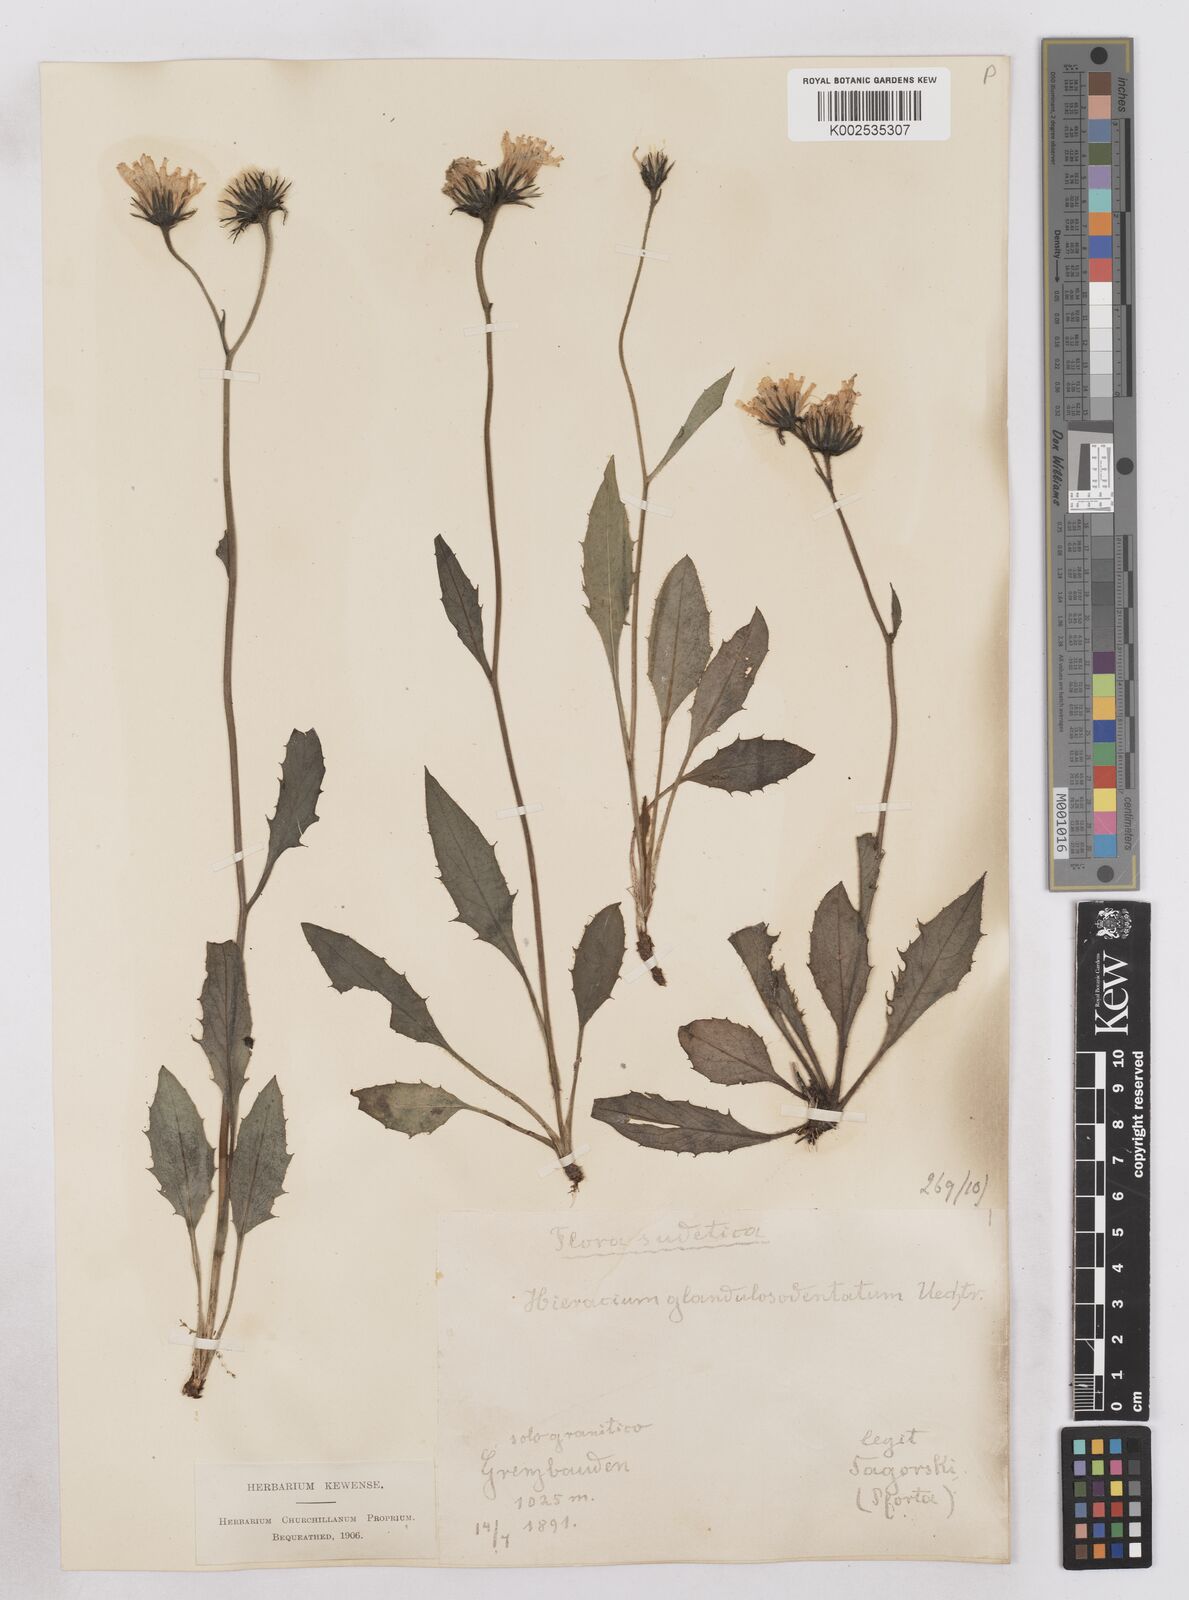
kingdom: Plantae
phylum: Tracheophyta
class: Magnoliopsida
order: Asterales
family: Asteraceae
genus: Hieracium
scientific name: Hieracium bocconei
